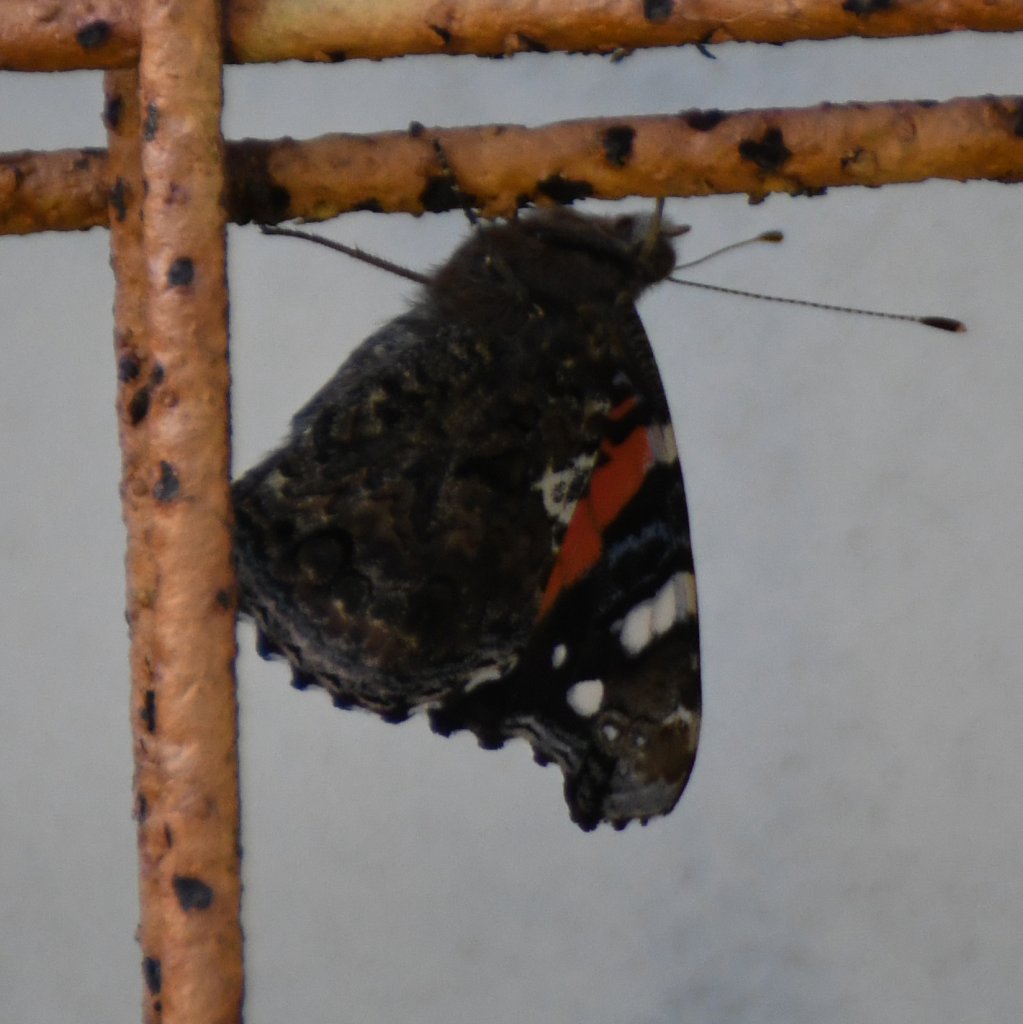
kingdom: Animalia
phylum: Arthropoda
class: Insecta
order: Lepidoptera
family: Nymphalidae
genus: Vanessa
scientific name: Vanessa atalanta
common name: Red Admiral
